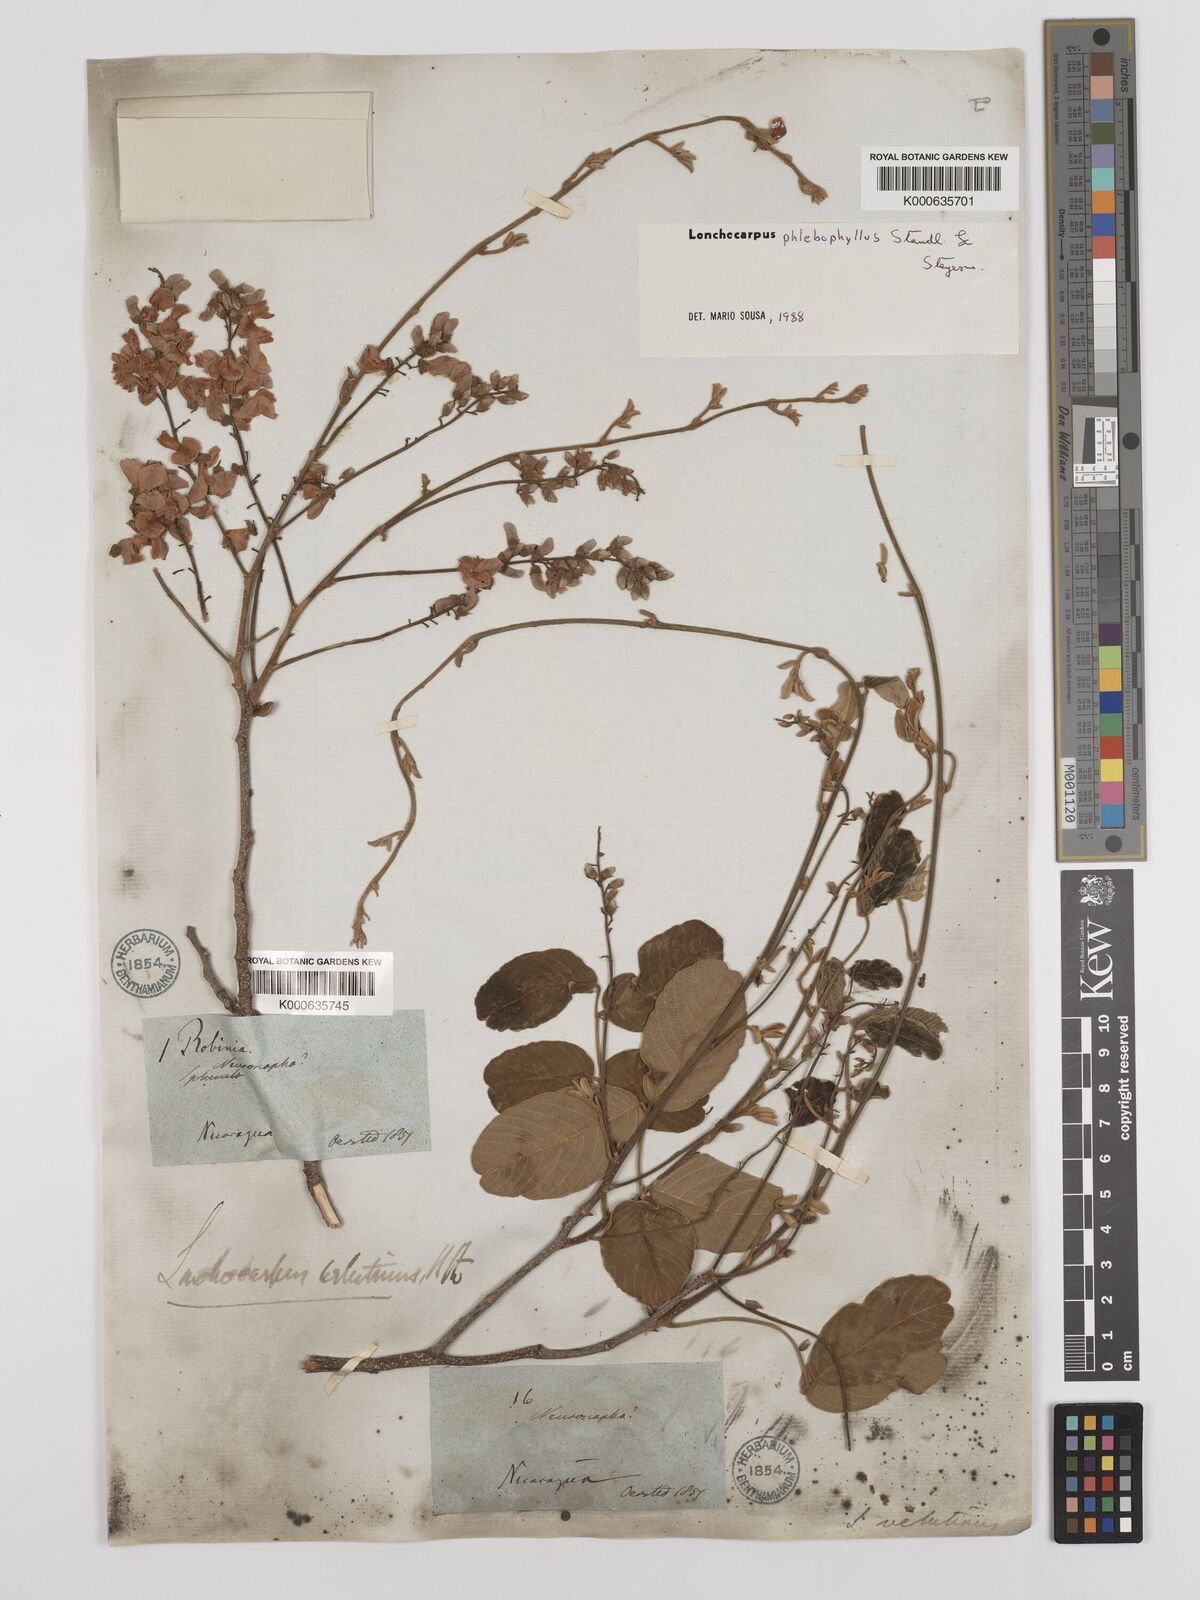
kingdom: Plantae
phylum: Tracheophyta
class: Magnoliopsida
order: Fabales
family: Fabaceae
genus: Lonchocarpus
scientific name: Lonchocarpus phlebophyllus
